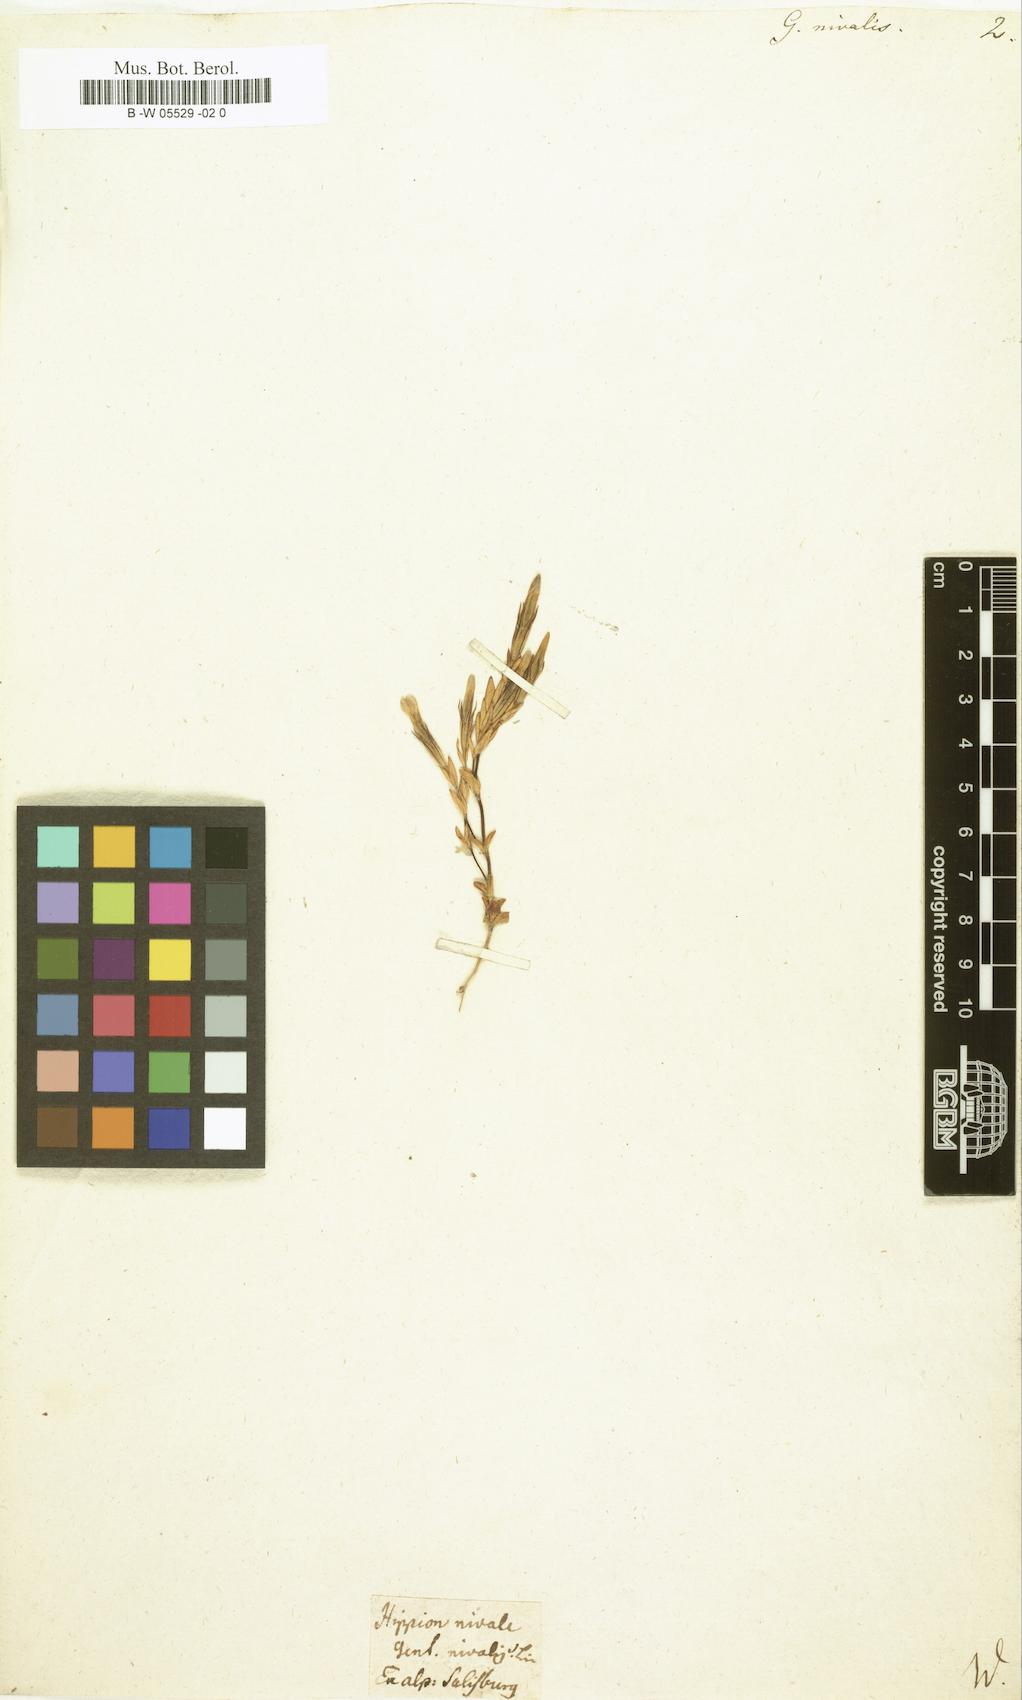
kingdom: Plantae
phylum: Tracheophyta
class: Magnoliopsida
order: Gentianales
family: Gentianaceae
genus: Gentiana
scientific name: Gentiana nivalis
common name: Alpine gentian
